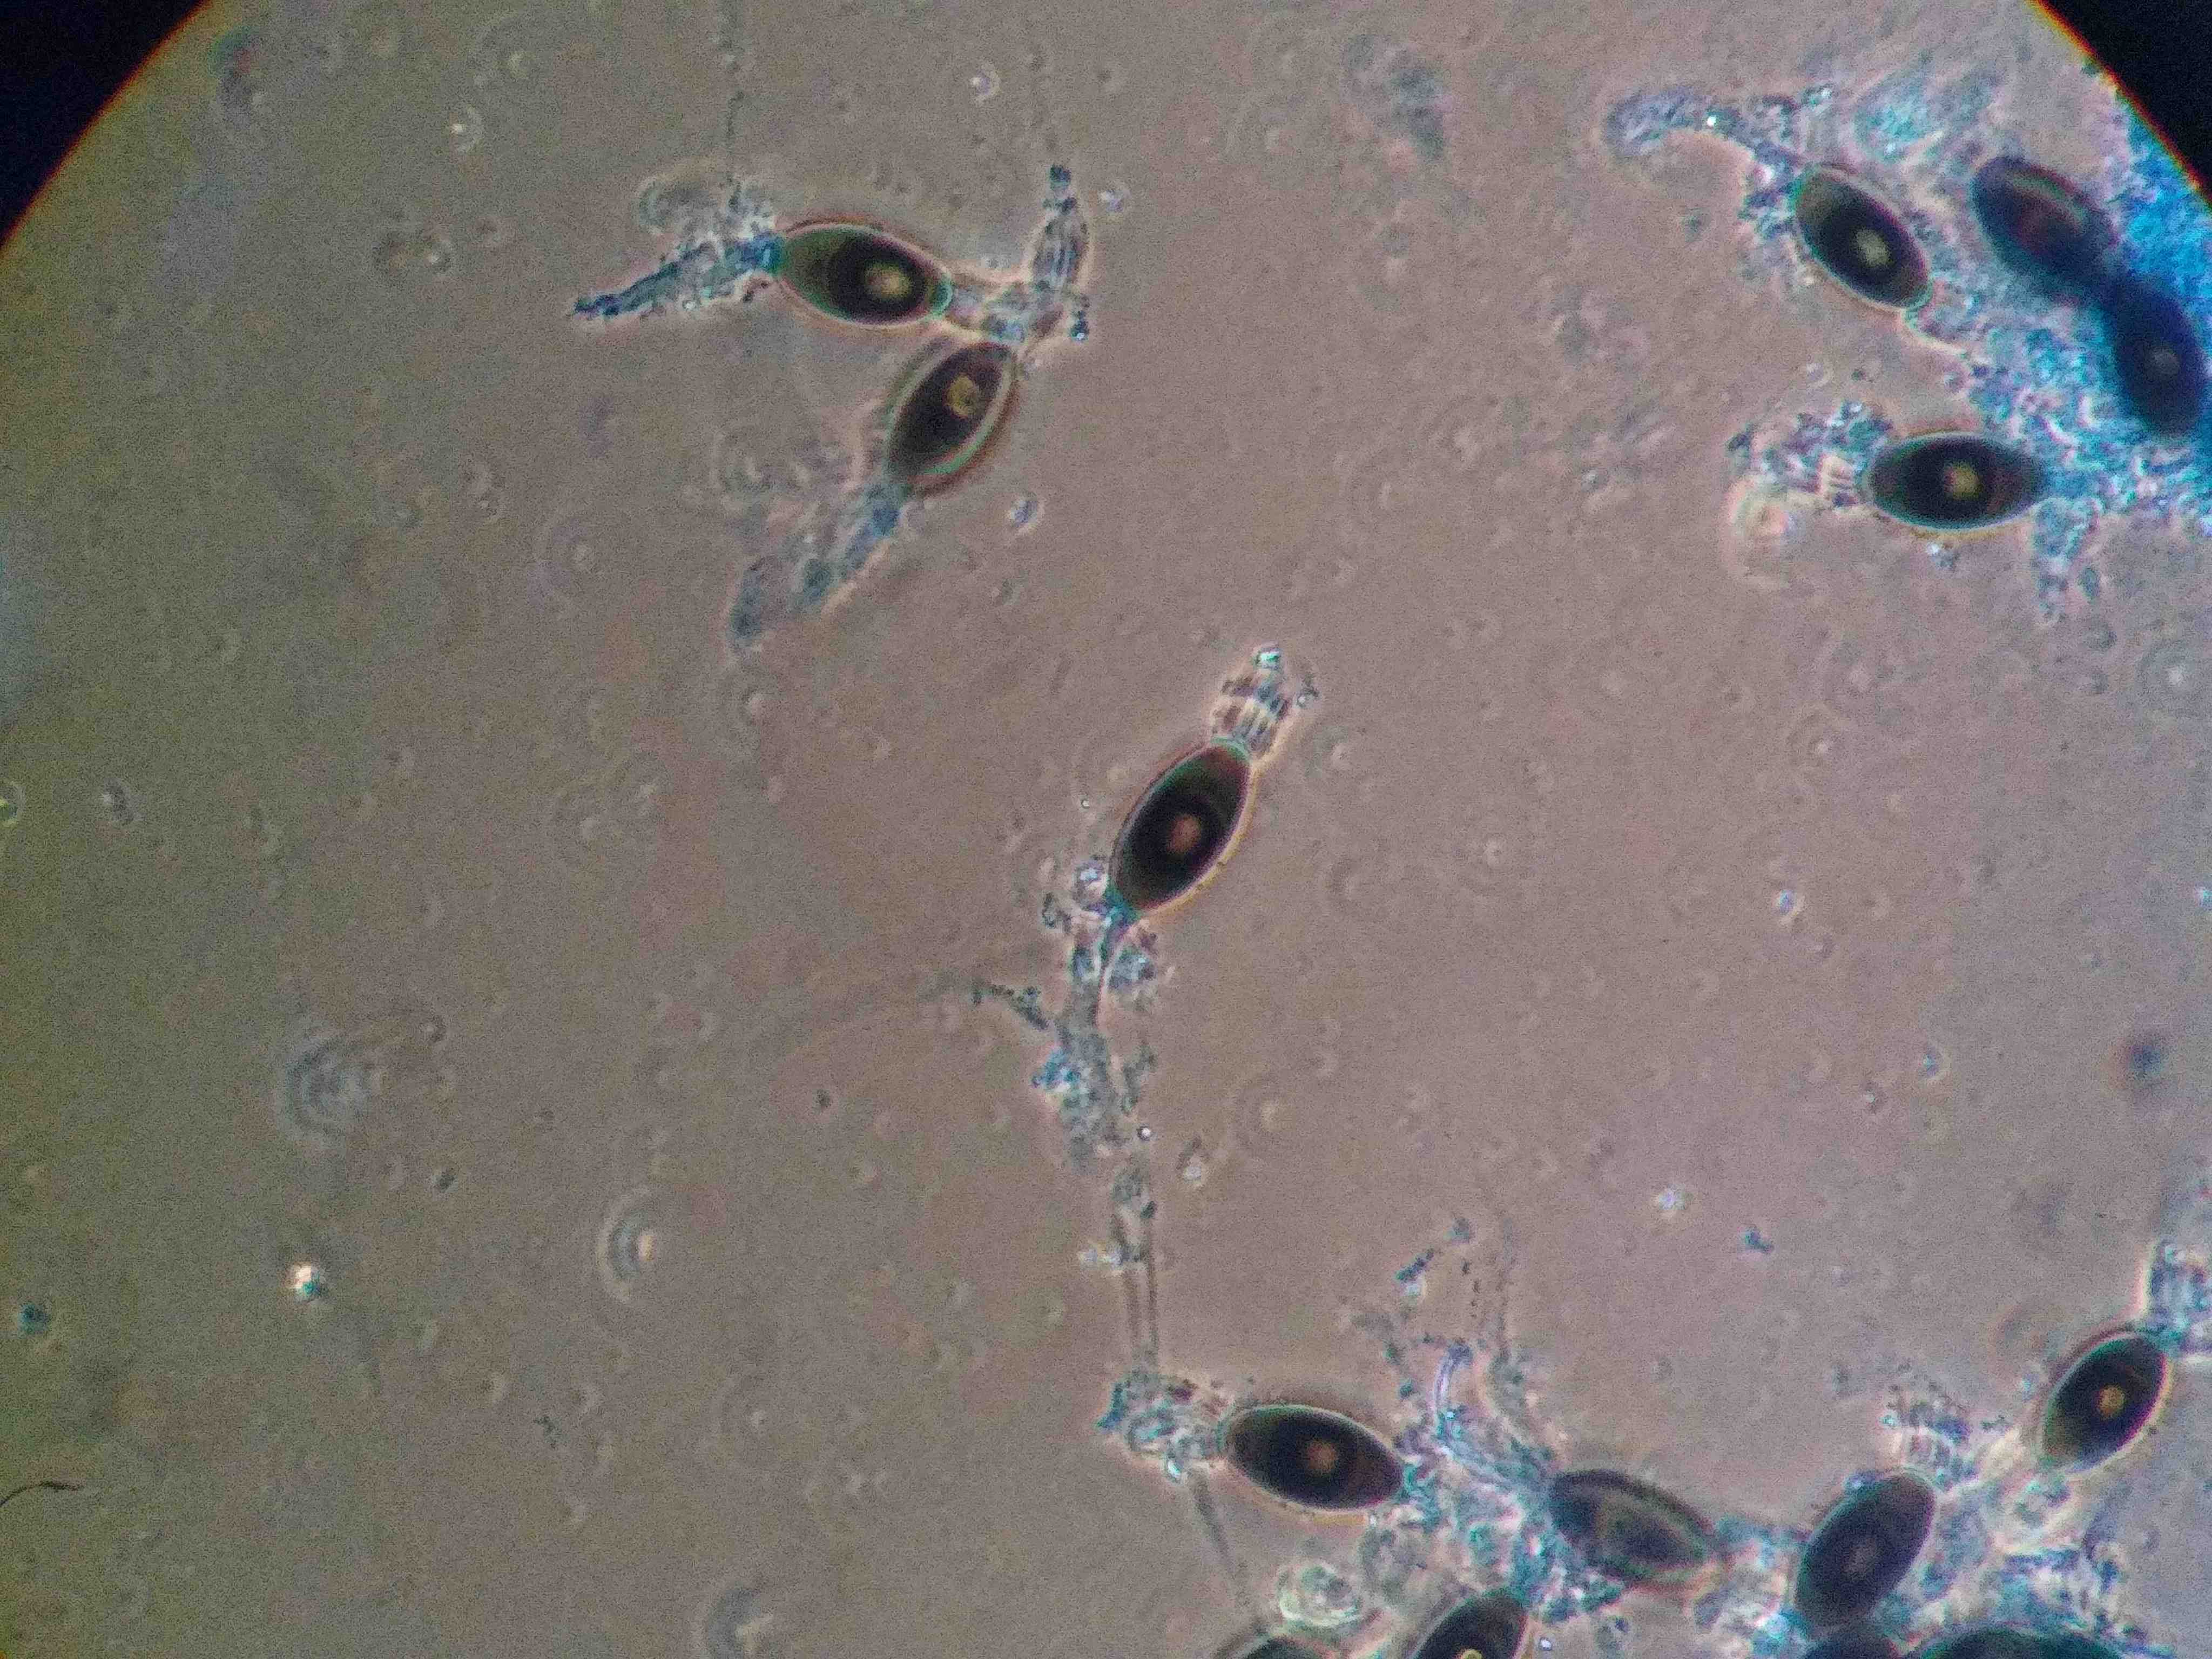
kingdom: Fungi
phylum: Ascomycota
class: Sordariomycetes
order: Sordariales
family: Naviculisporaceae
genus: Rhypophila
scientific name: Rhypophila decipiens
